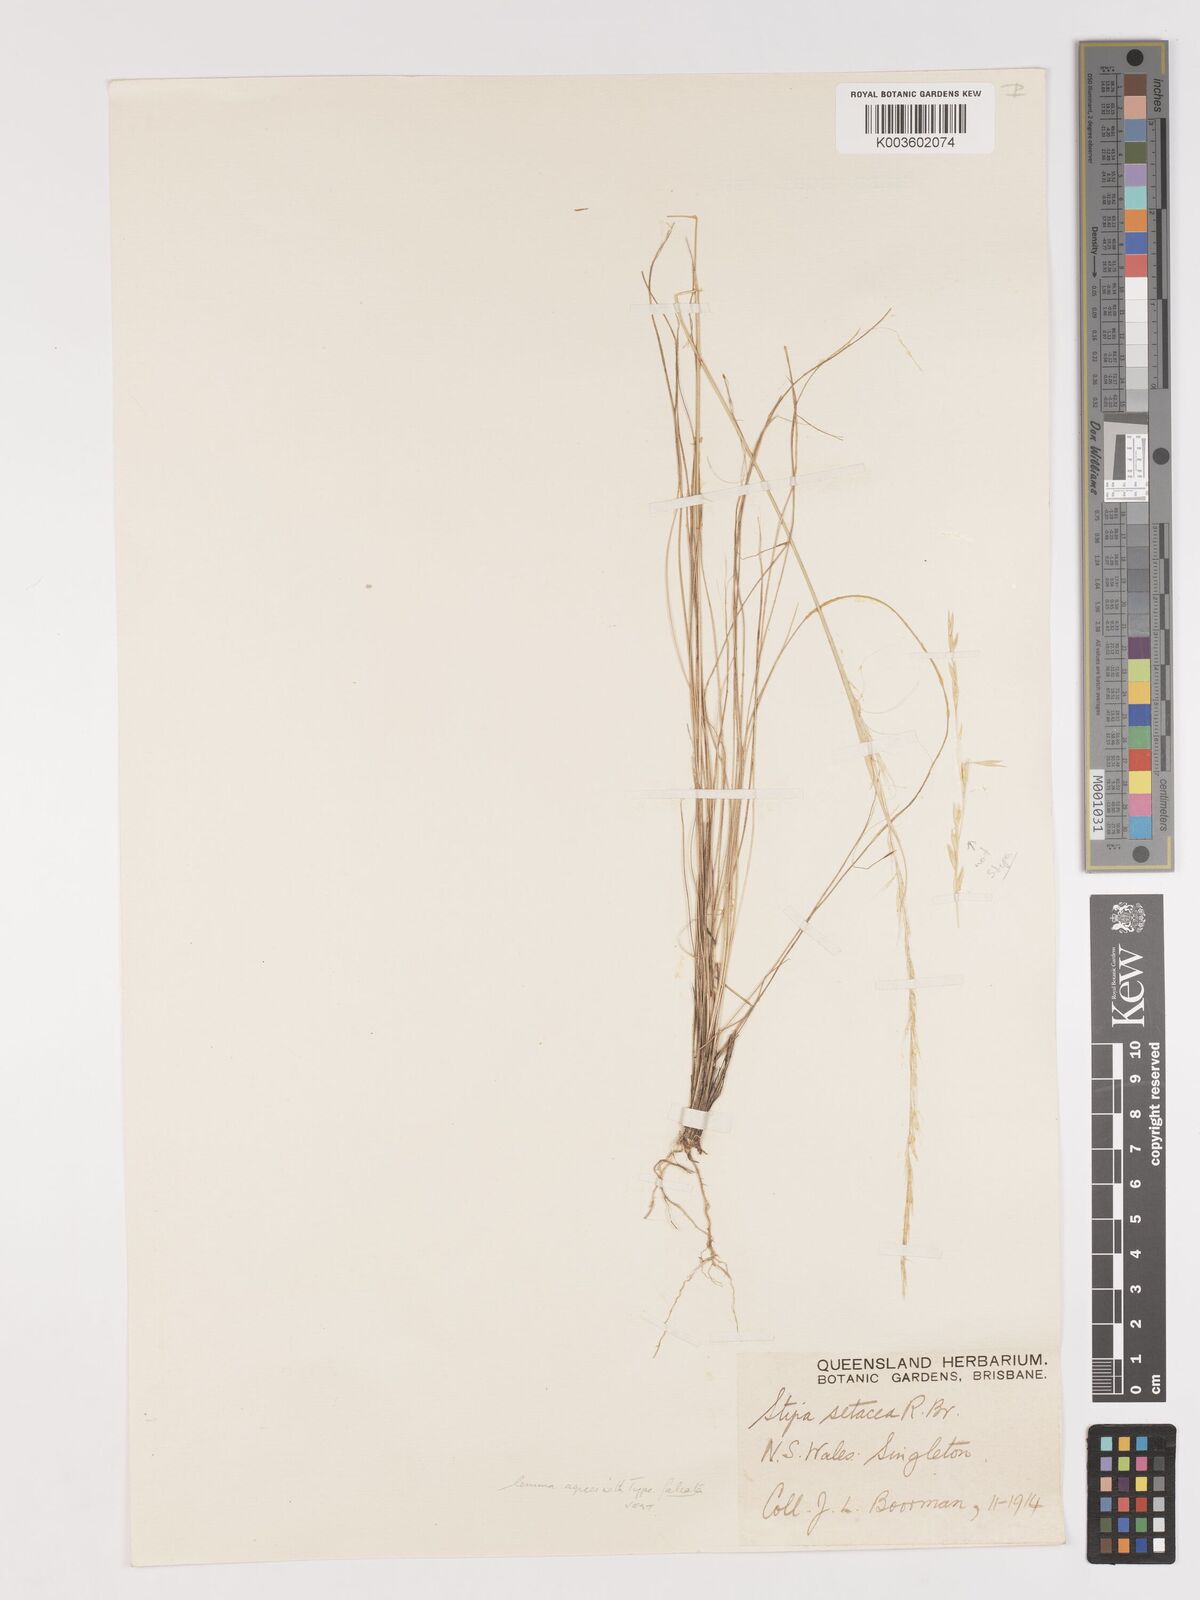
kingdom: Plantae
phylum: Tracheophyta
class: Liliopsida
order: Poales
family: Poaceae
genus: Austrostipa
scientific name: Austrostipa scabra
